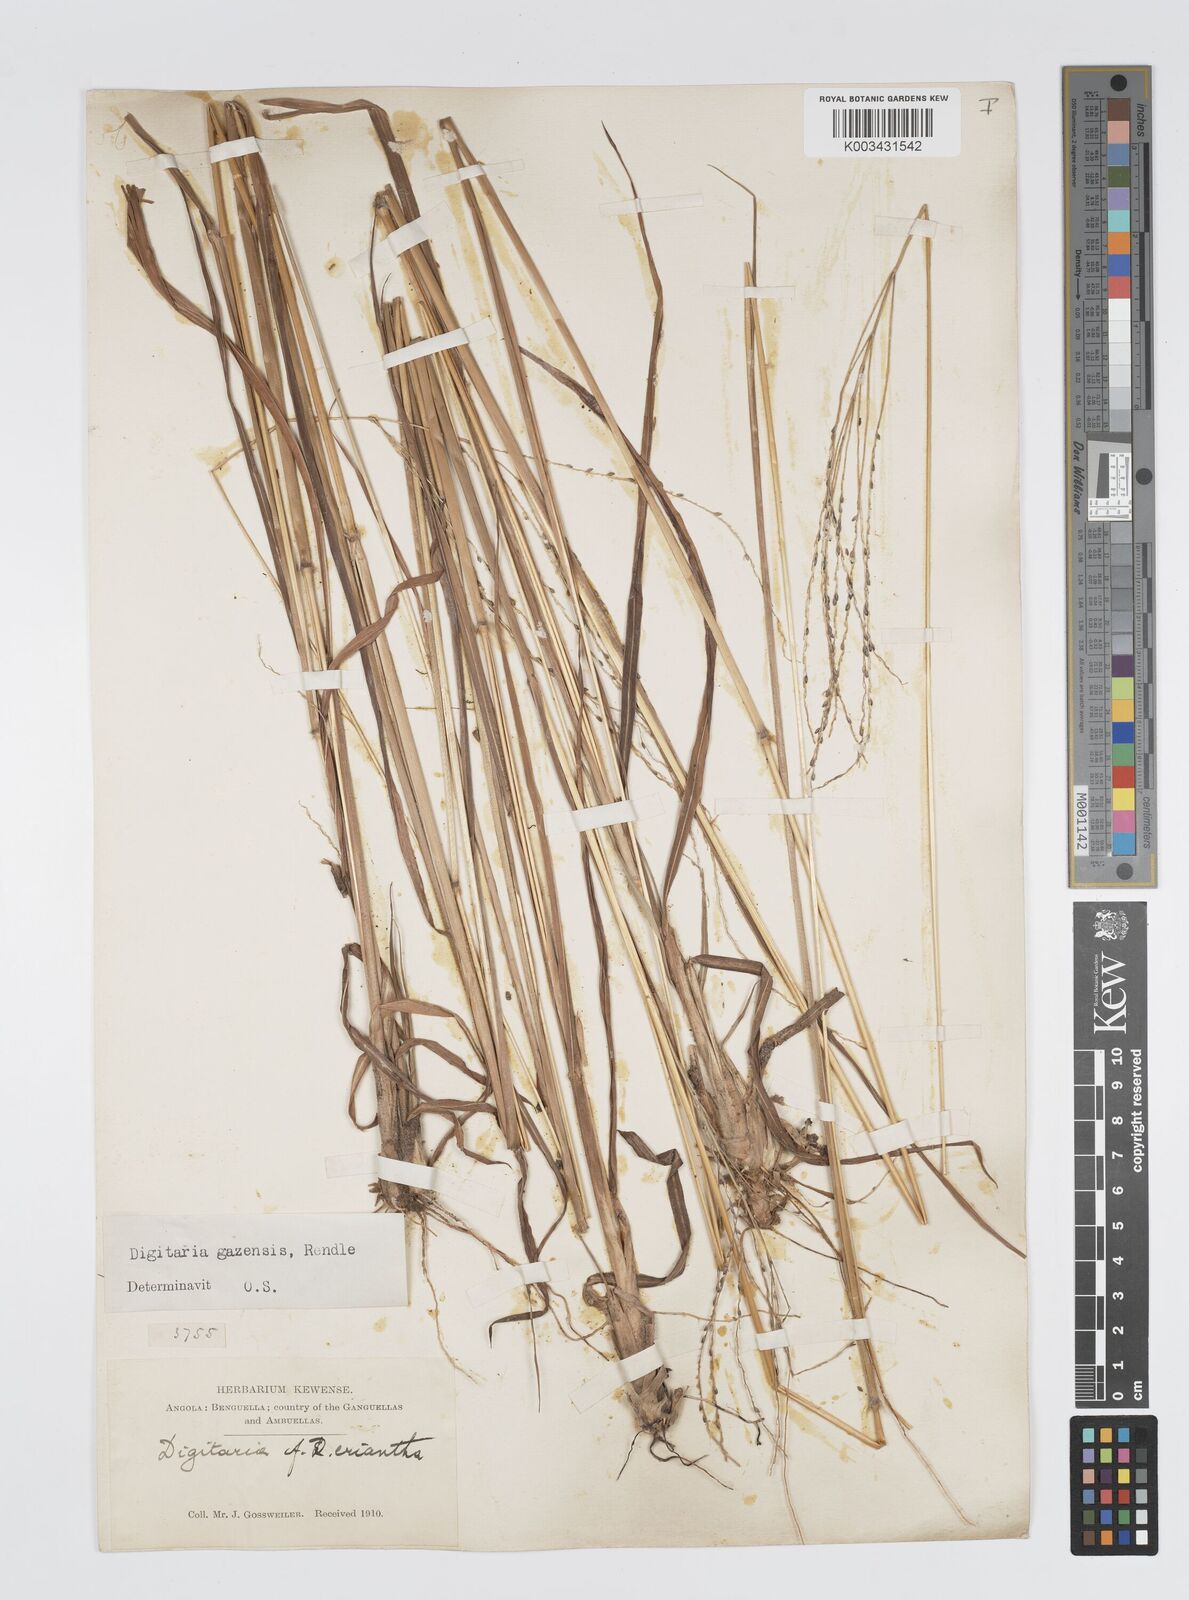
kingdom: Plantae
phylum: Tracheophyta
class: Liliopsida
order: Poales
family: Poaceae
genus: Digitaria
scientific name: Digitaria gazensis
